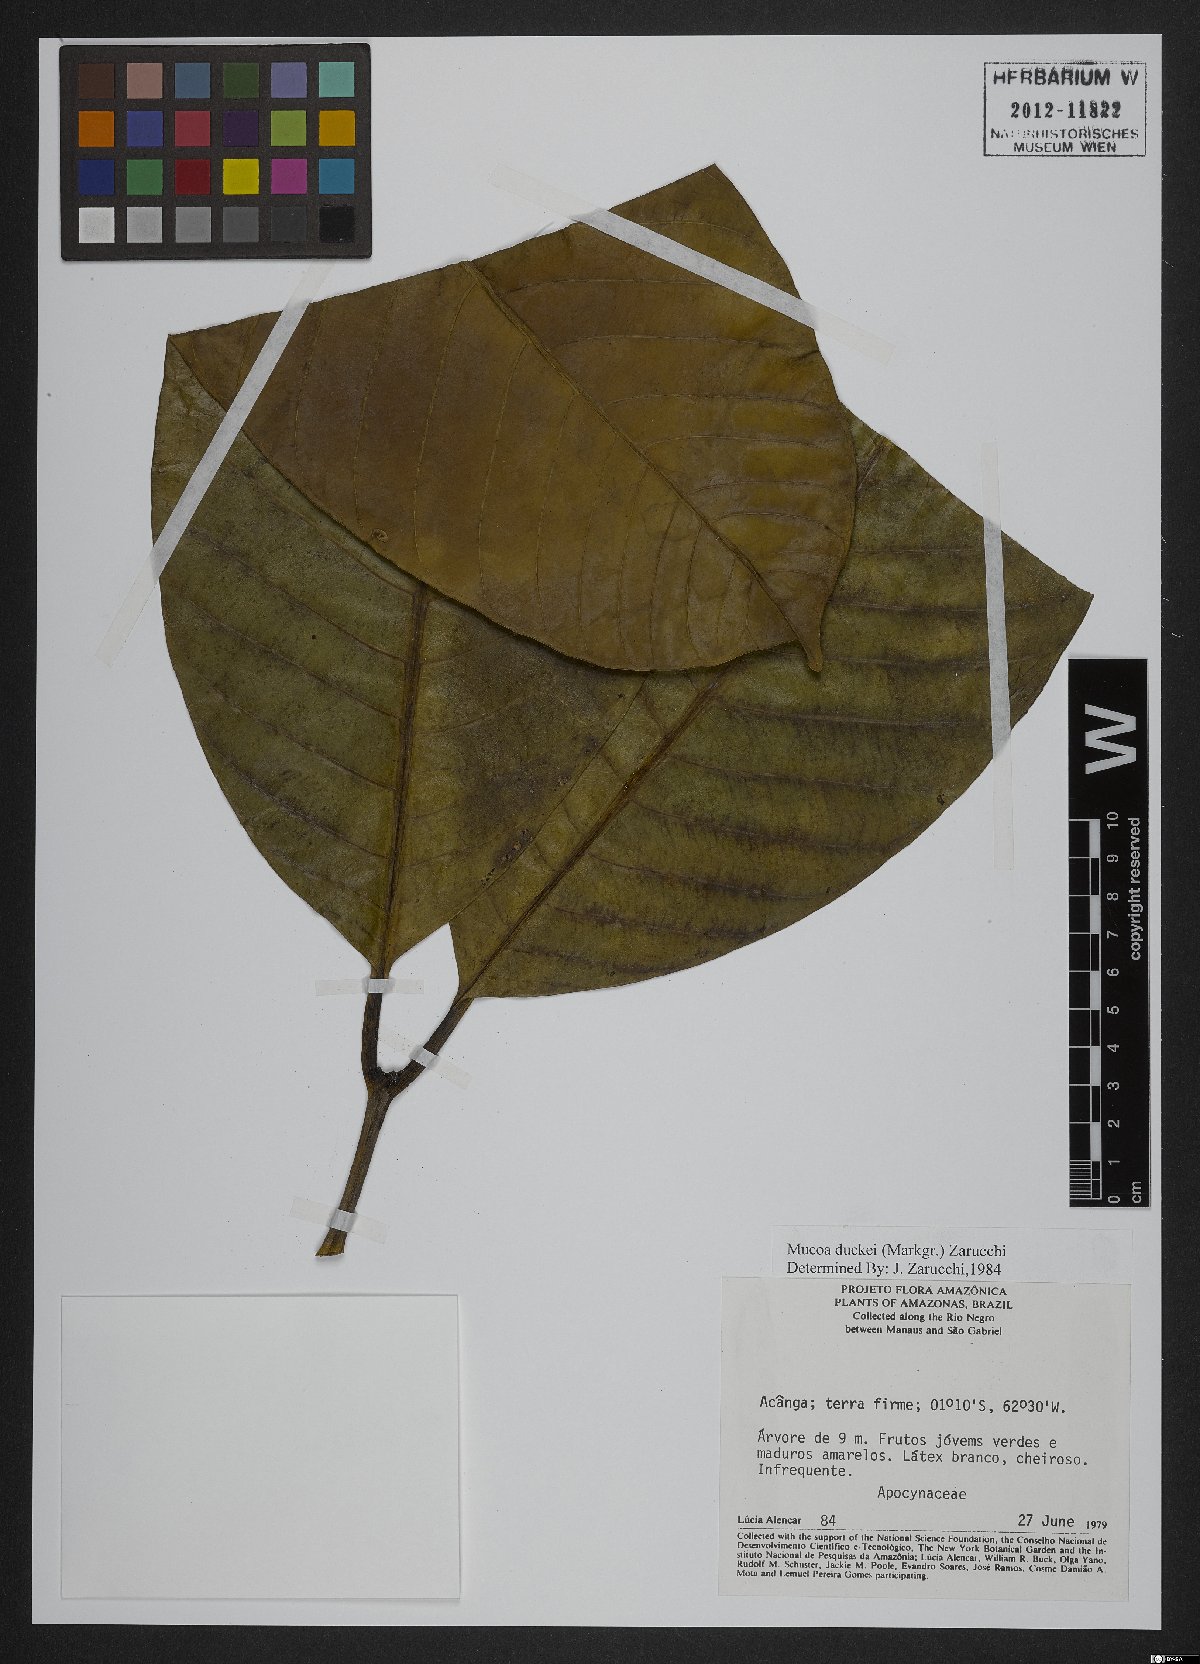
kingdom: Plantae
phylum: Tracheophyta
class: Magnoliopsida
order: Gentianales
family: Apocynaceae
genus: Mucoa
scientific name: Mucoa duckei
